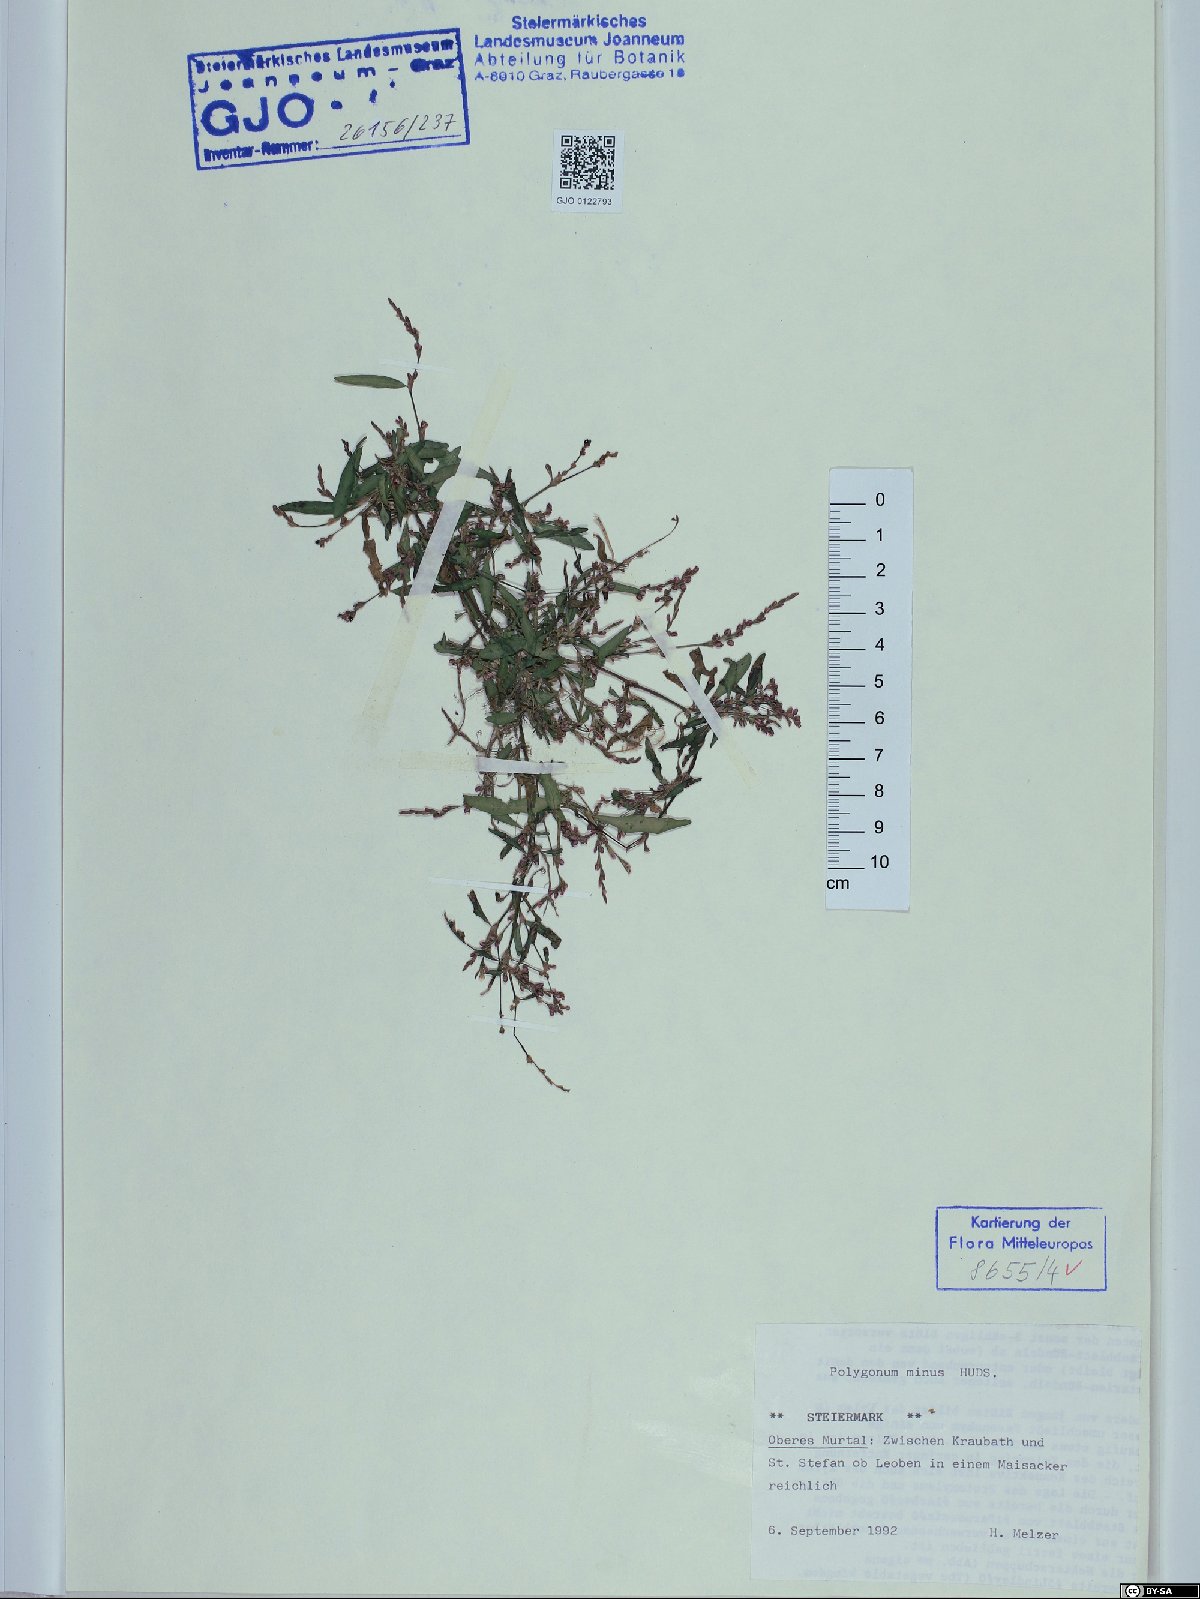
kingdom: Plantae
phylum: Tracheophyta
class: Magnoliopsida
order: Caryophyllales
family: Polygonaceae
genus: Persicaria
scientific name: Persicaria minor
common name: Small water-pepper
